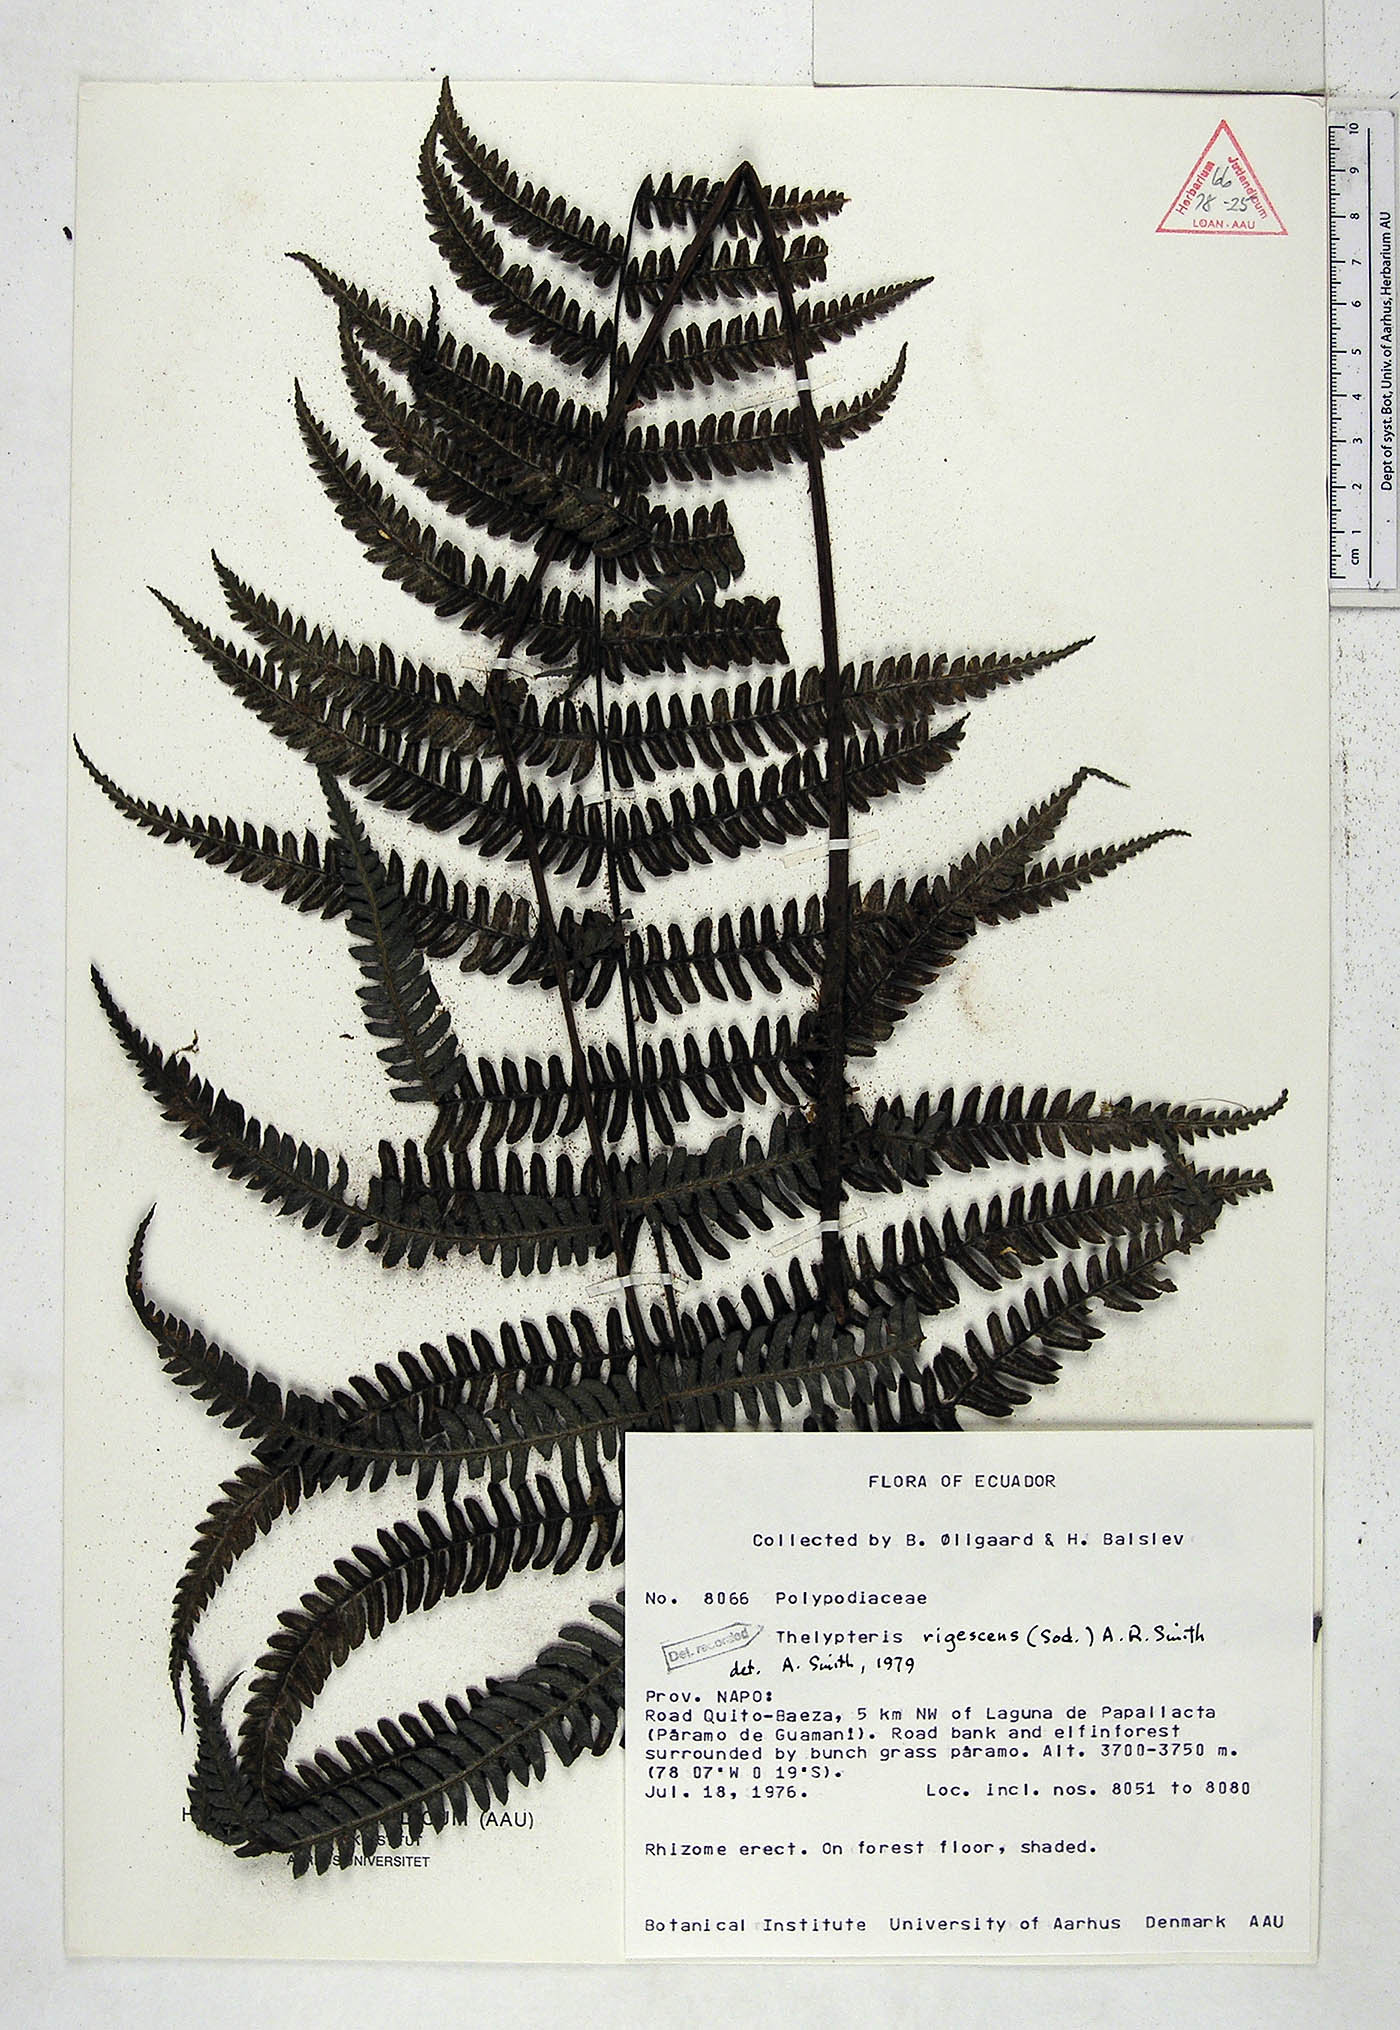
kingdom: Plantae
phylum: Tracheophyta
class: Polypodiopsida
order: Polypodiales
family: Thelypteridaceae
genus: Amauropelta
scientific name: Amauropelta rigescens
